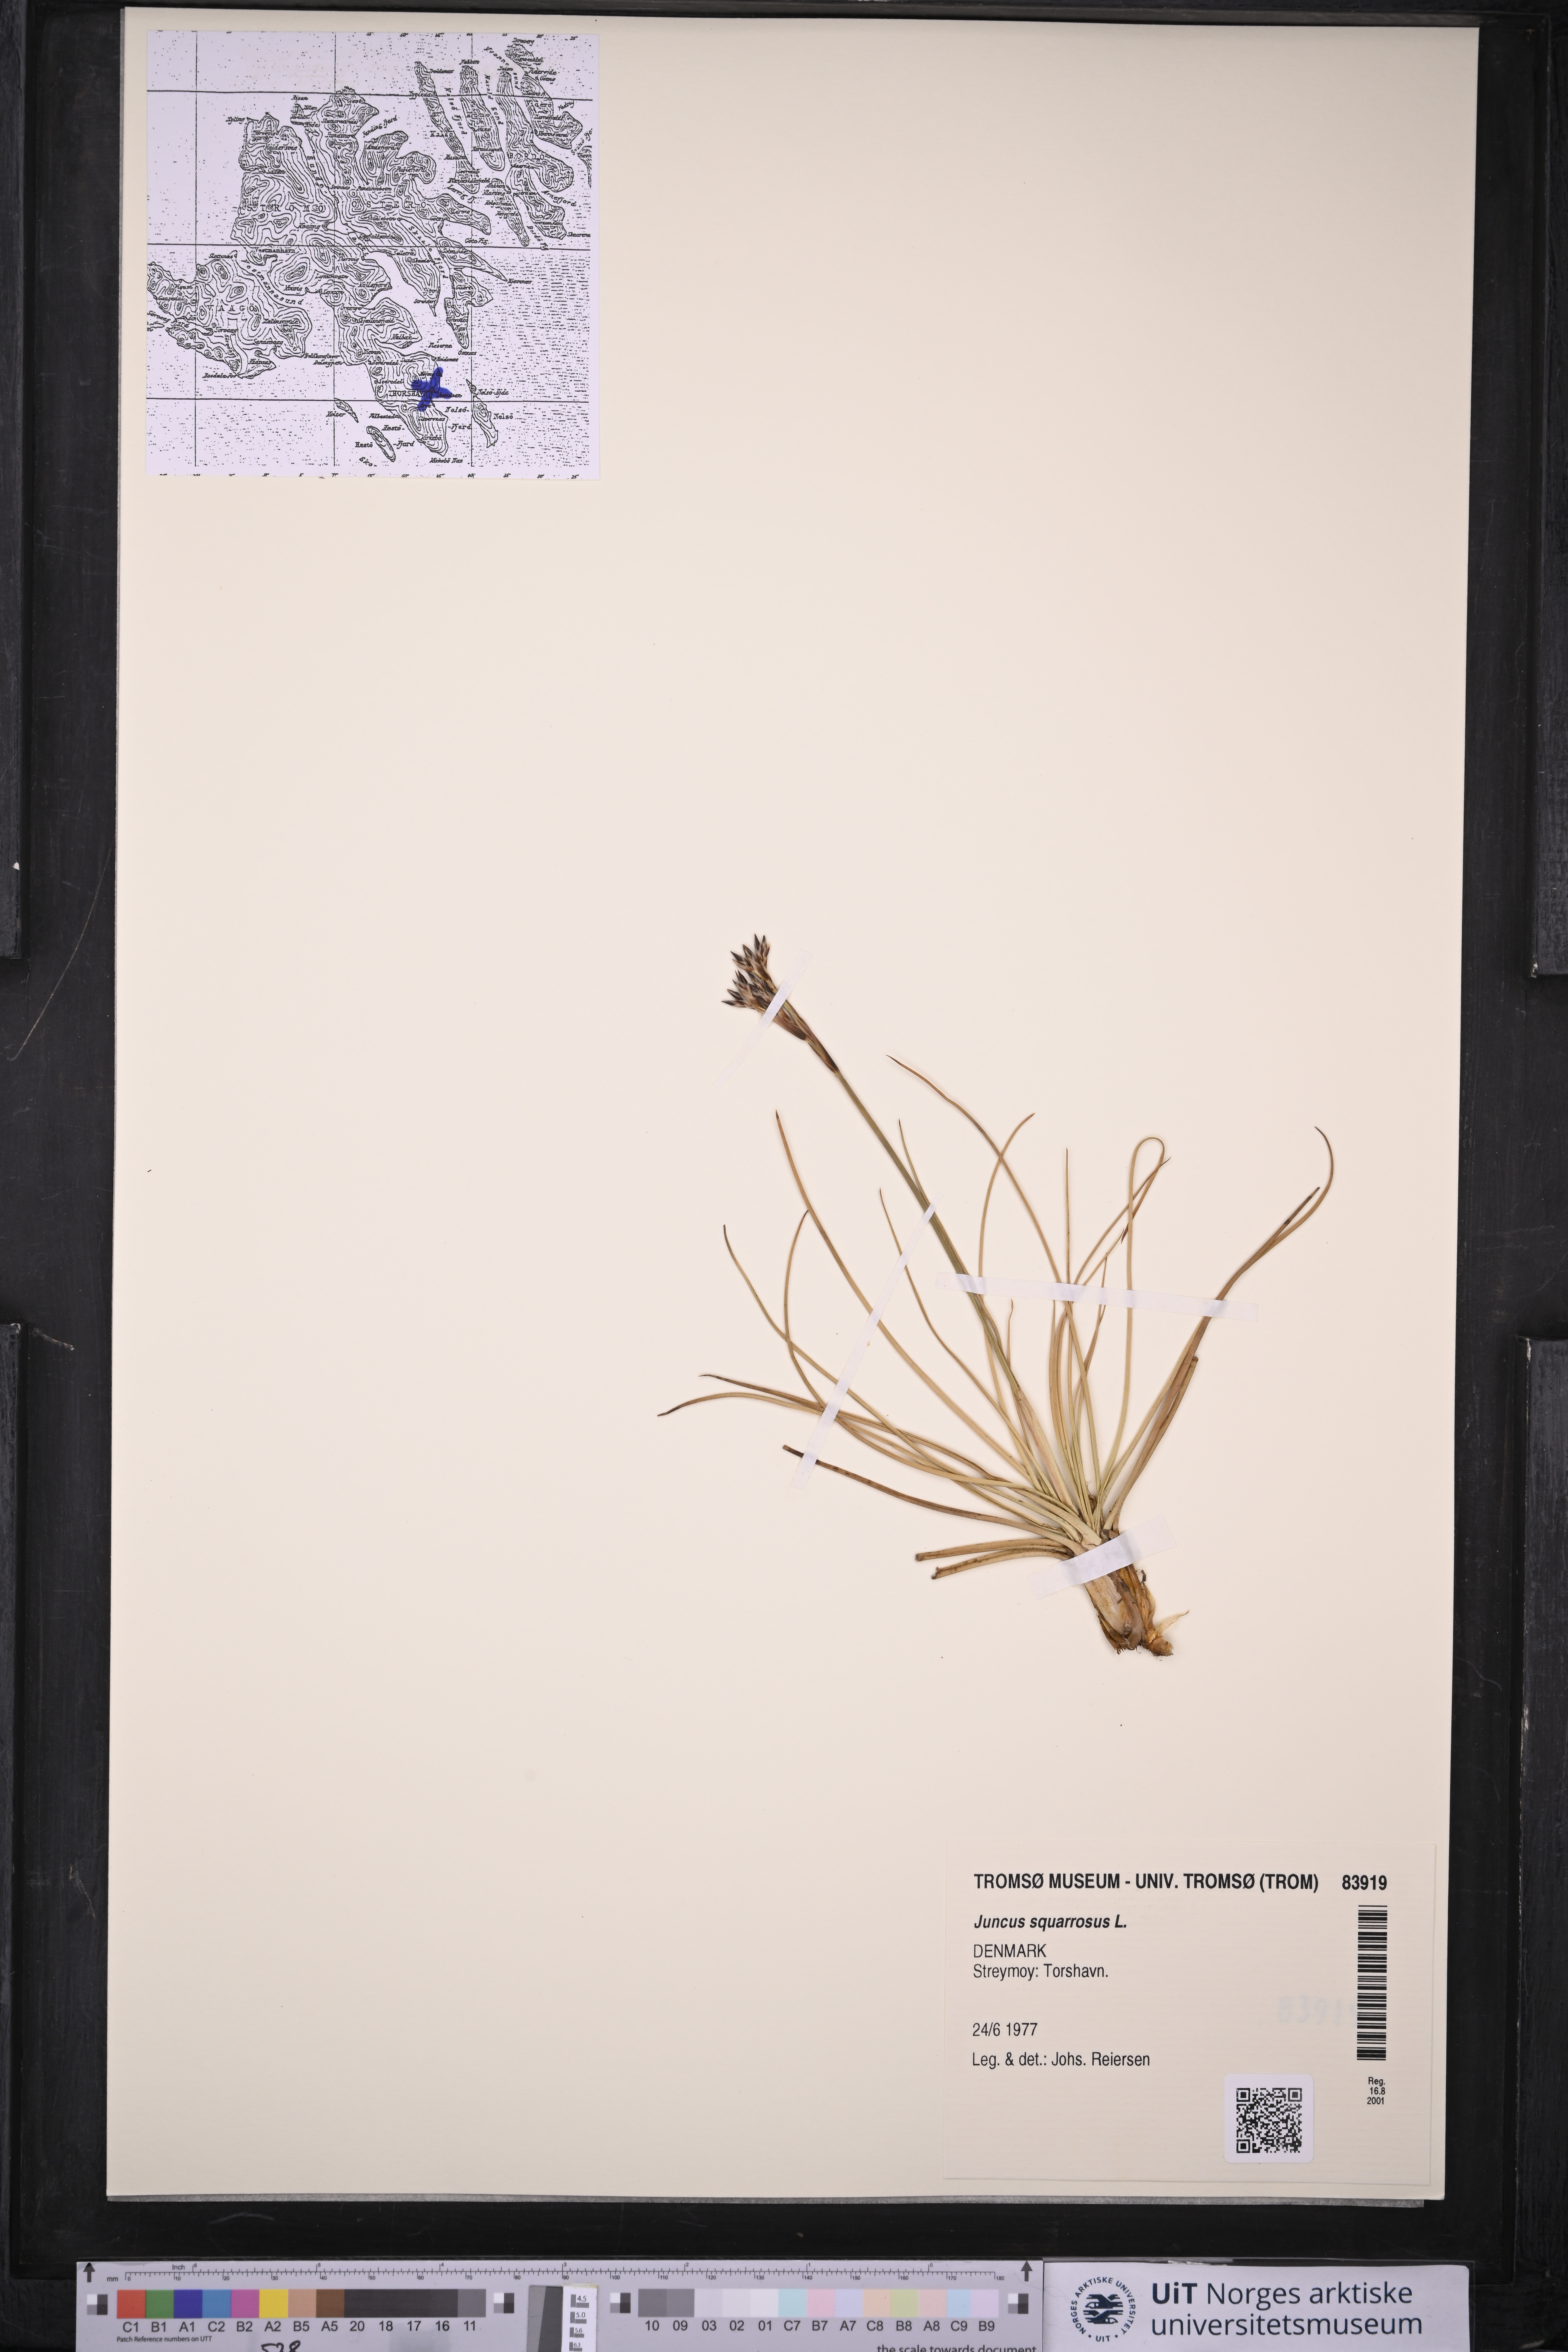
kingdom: Plantae
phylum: Tracheophyta
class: Liliopsida
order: Poales
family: Juncaceae
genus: Juncus
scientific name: Juncus squarrosus
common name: Heath rush
